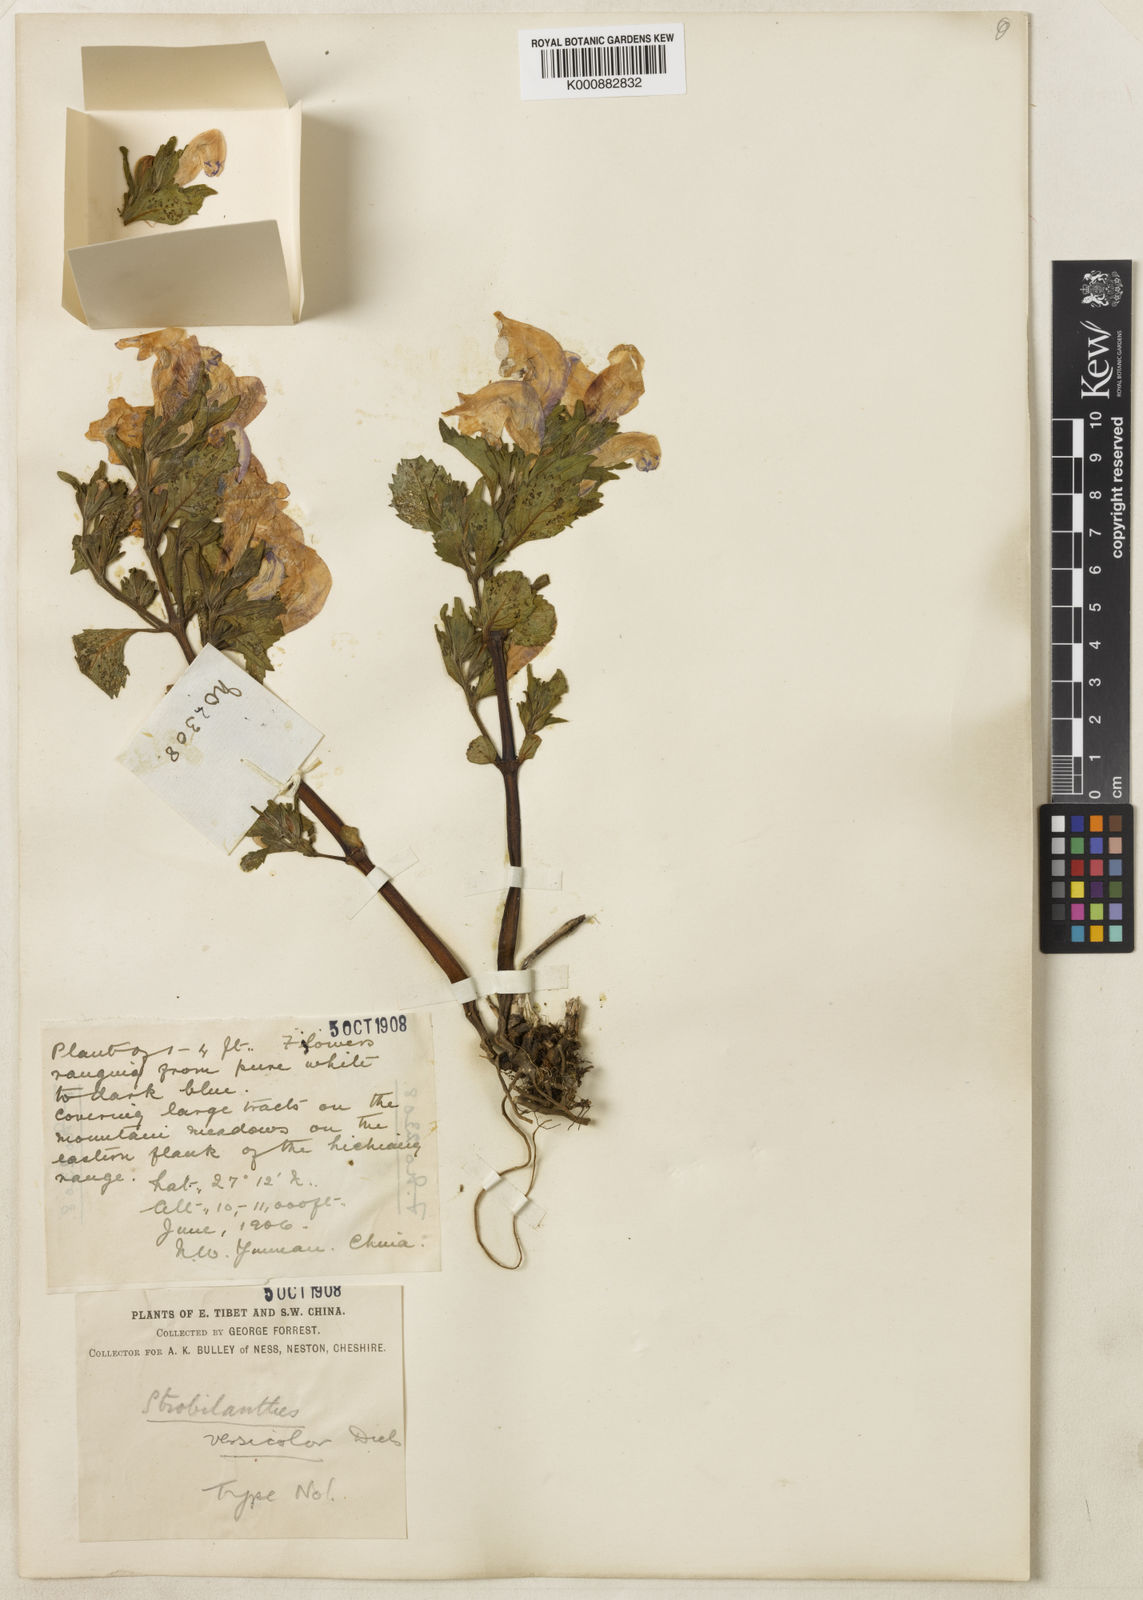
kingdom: Plantae
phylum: Tracheophyta
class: Magnoliopsida
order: Lamiales
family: Acanthaceae
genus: Strobilanthes
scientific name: Strobilanthes versicolor
